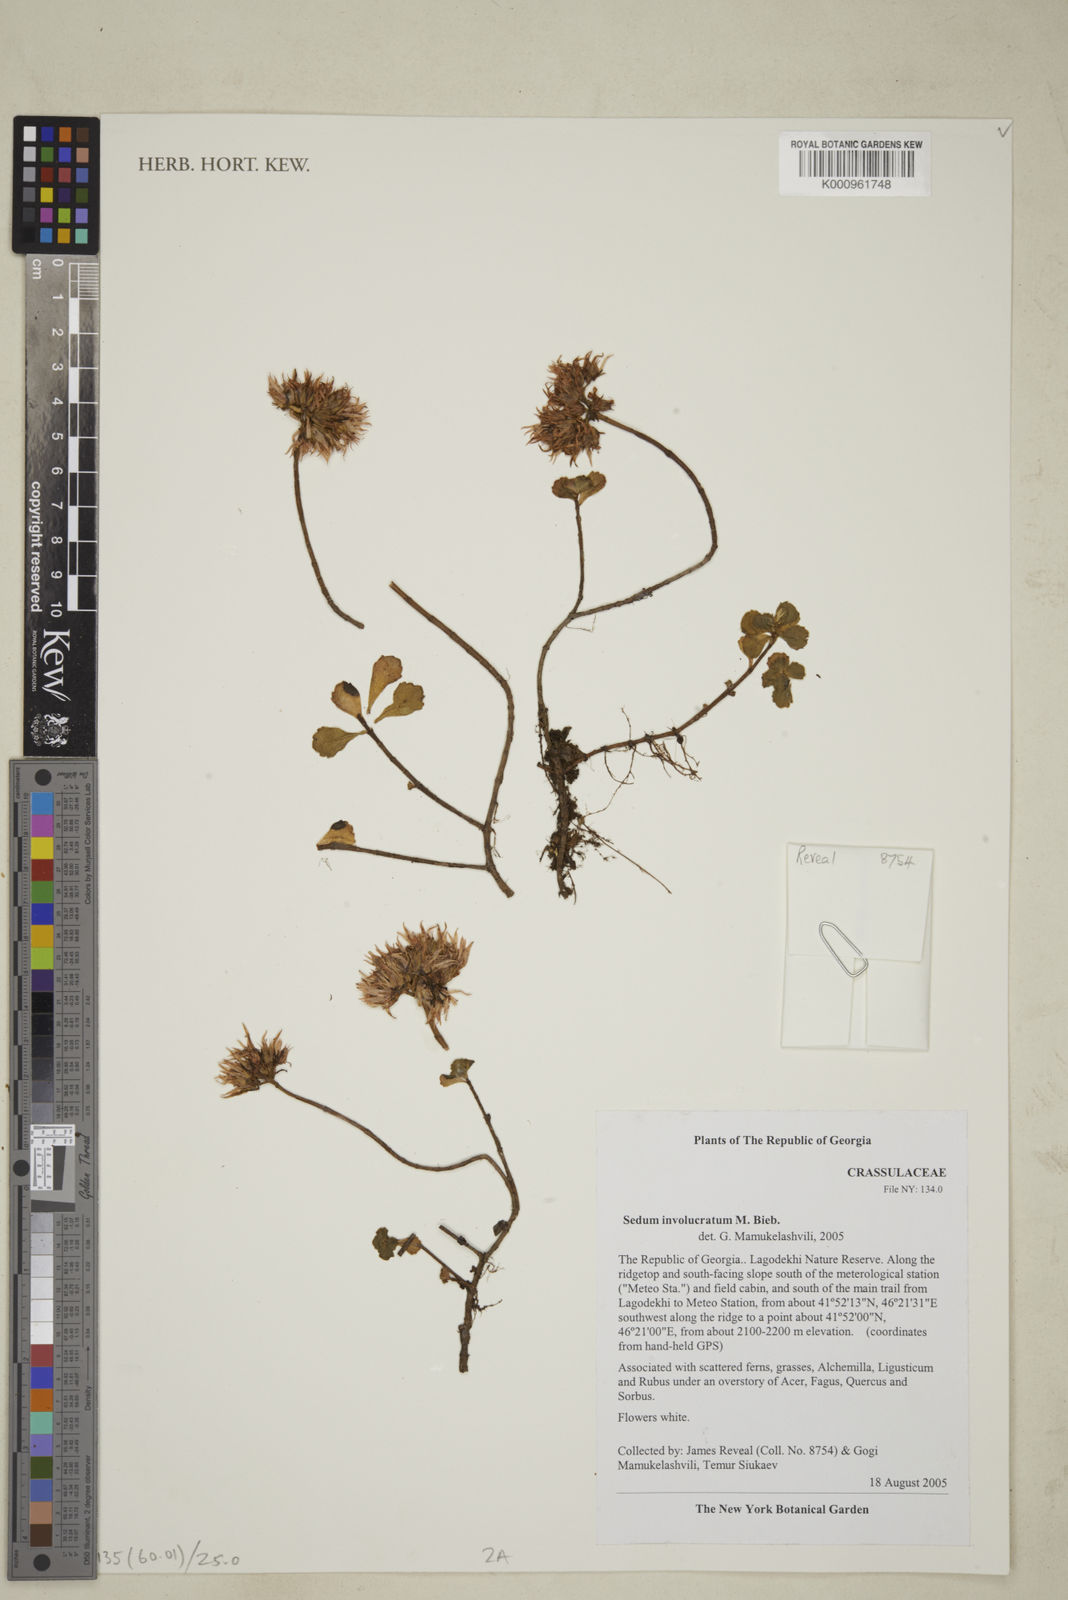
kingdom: Plantae
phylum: Tracheophyta
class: Magnoliopsida
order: Saxifragales
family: Crassulaceae
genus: Phedimus
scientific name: Phedimus spurius
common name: Caucasian stonecrop
